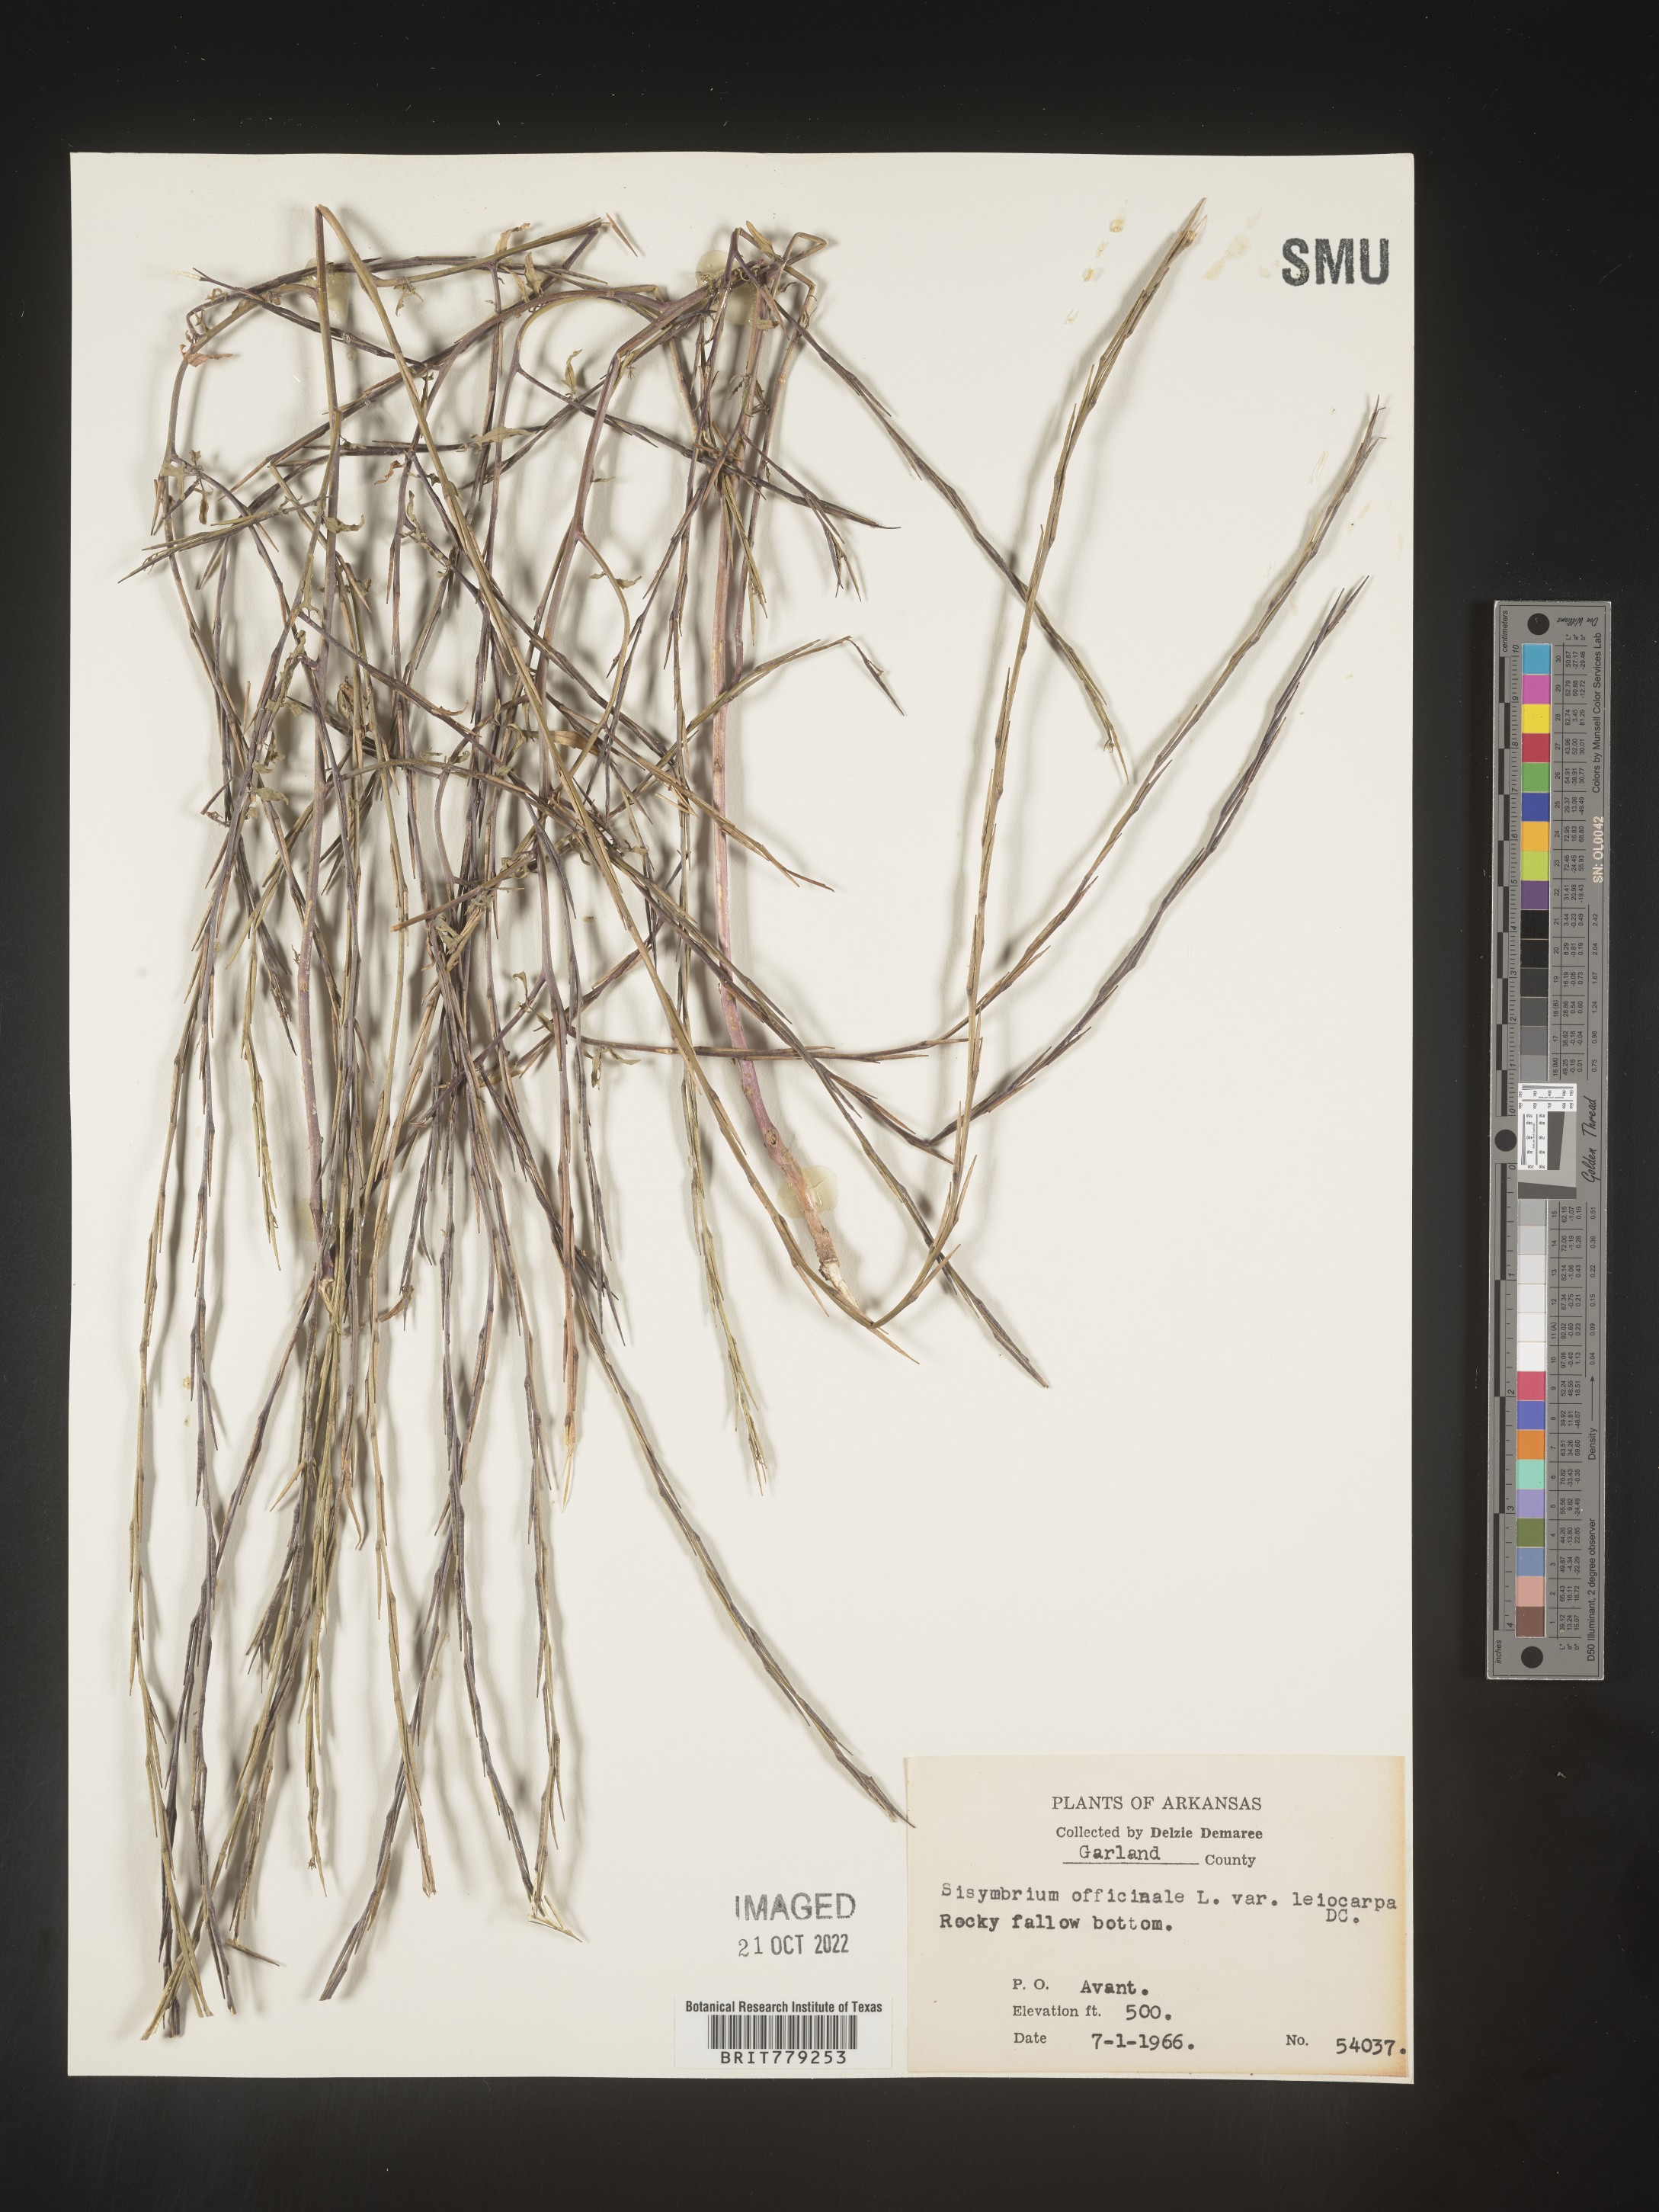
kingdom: Plantae
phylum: Tracheophyta
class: Magnoliopsida
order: Brassicales
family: Brassicaceae
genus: Sisymbrium
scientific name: Sisymbrium officinale
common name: Hedge mustard
